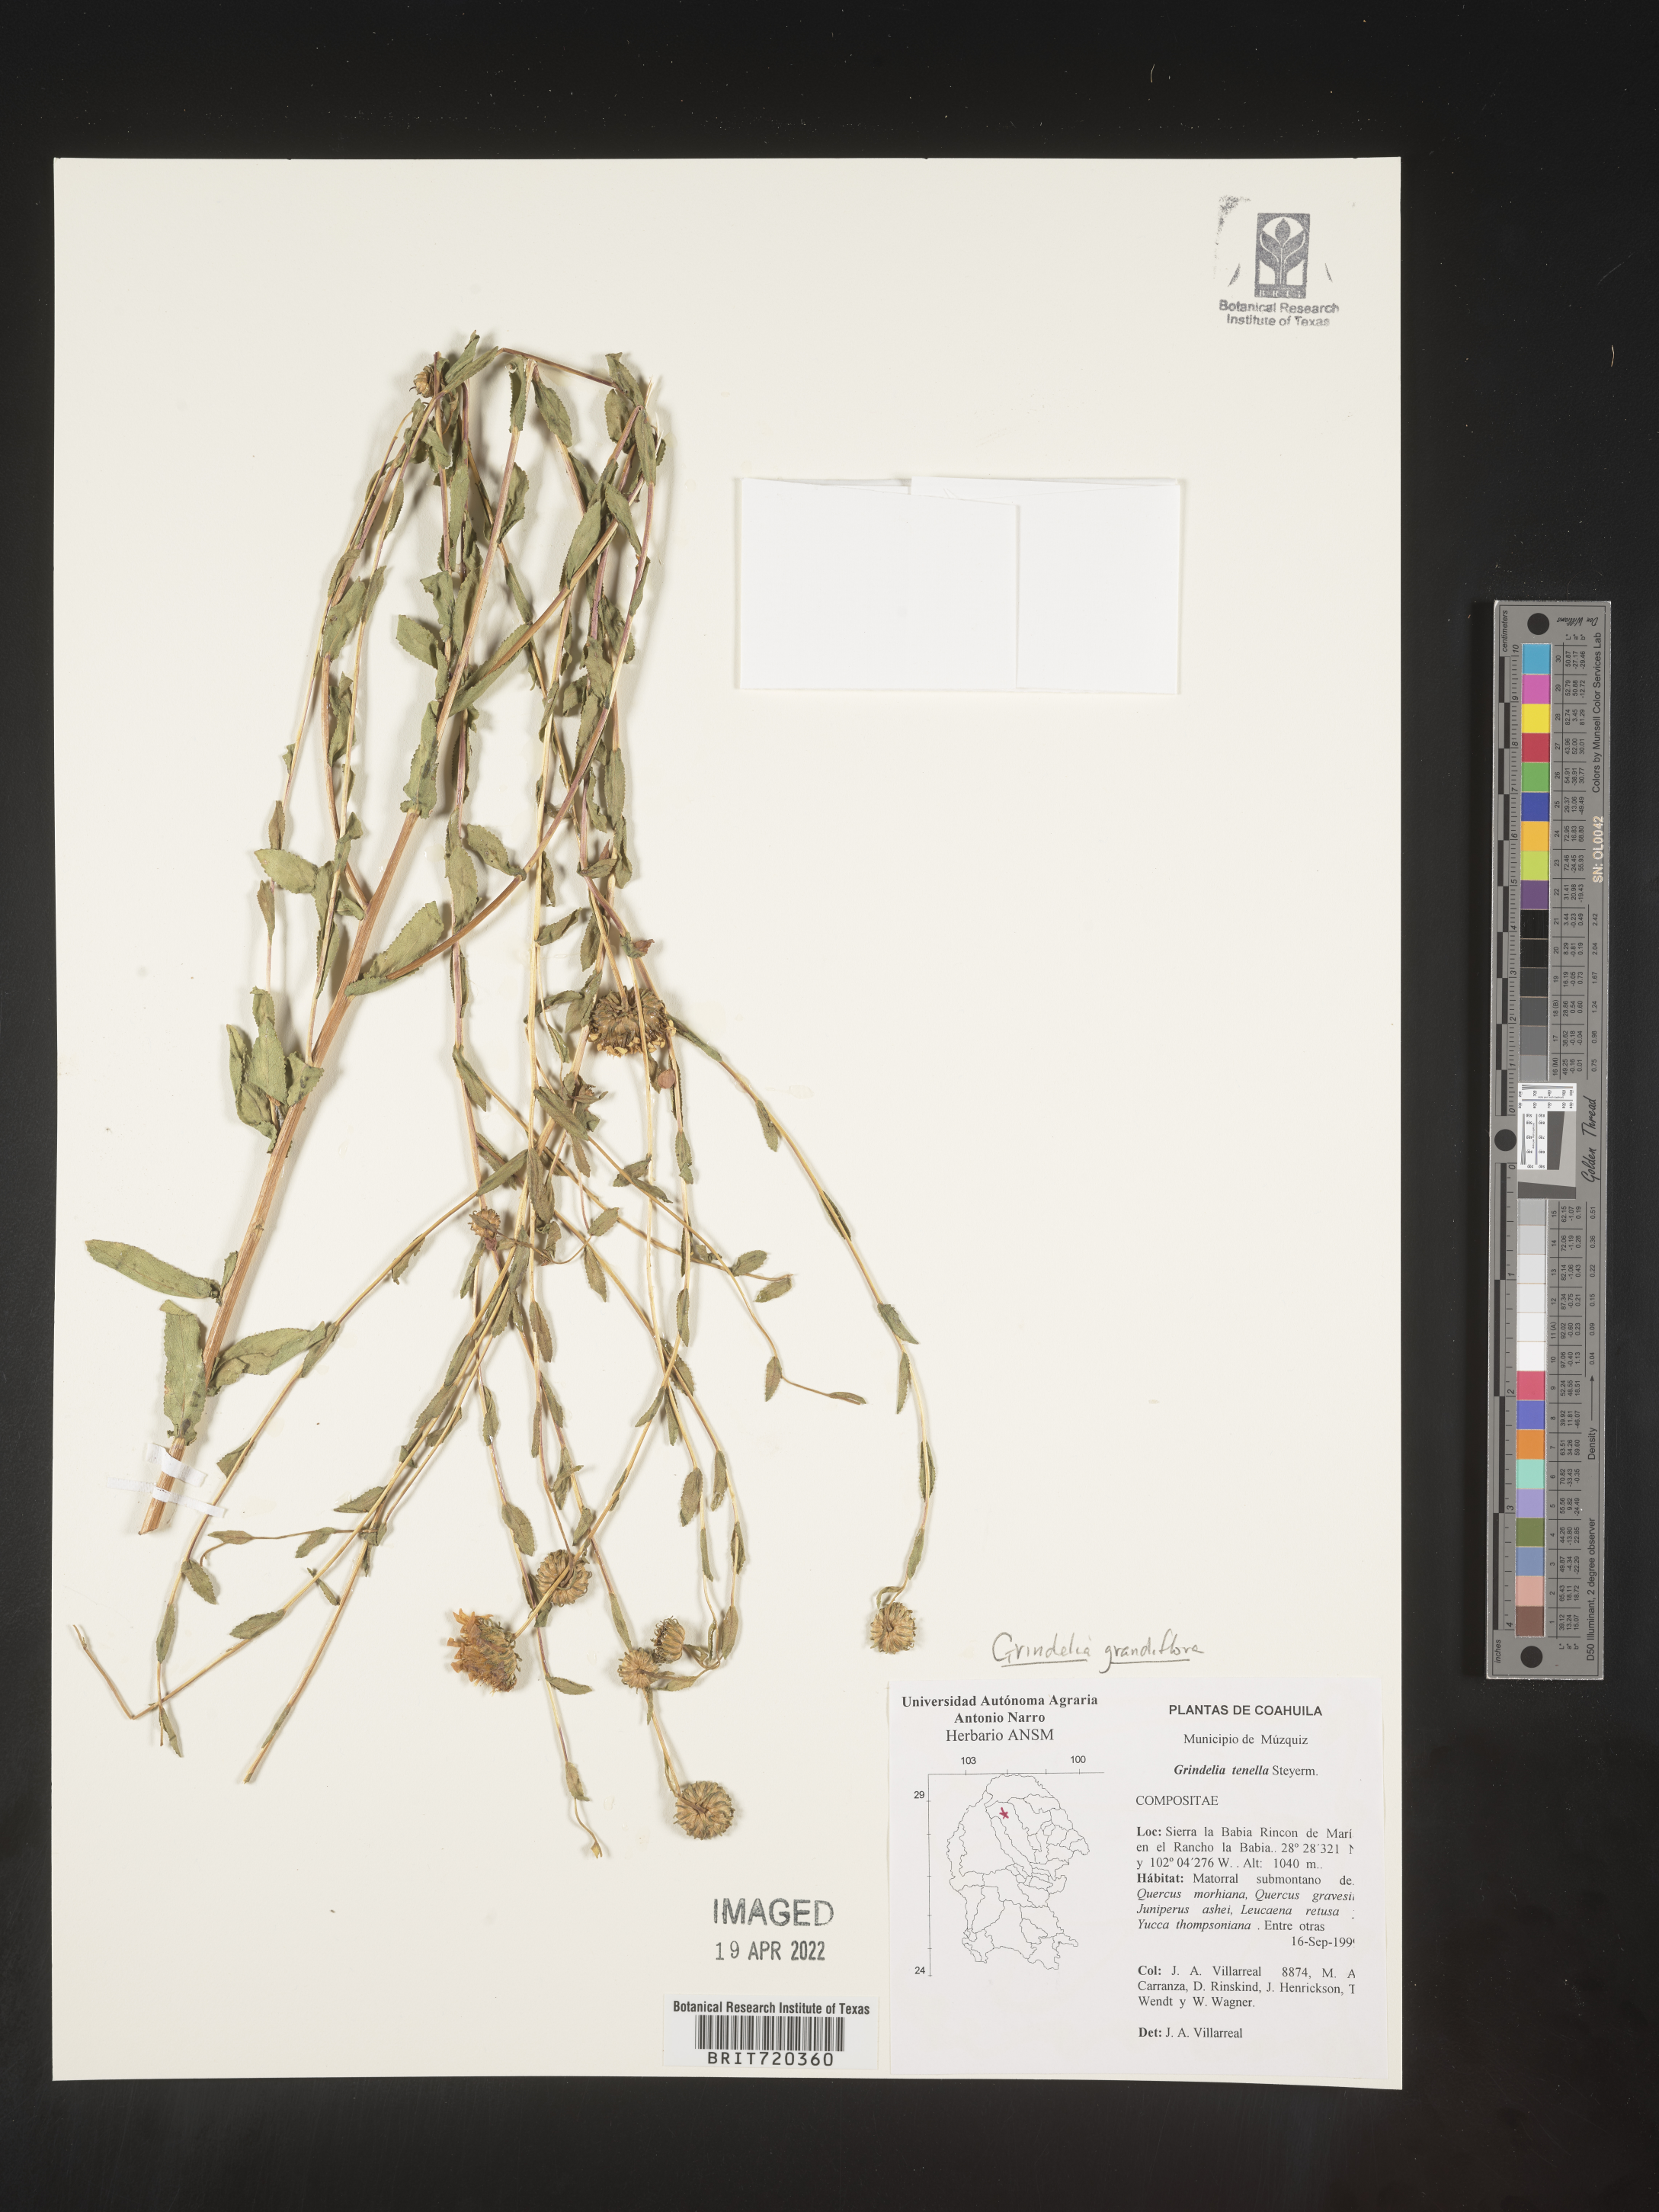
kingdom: Plantae
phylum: Tracheophyta
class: Magnoliopsida
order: Asterales
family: Asteraceae
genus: Grindelia
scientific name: Grindelia
